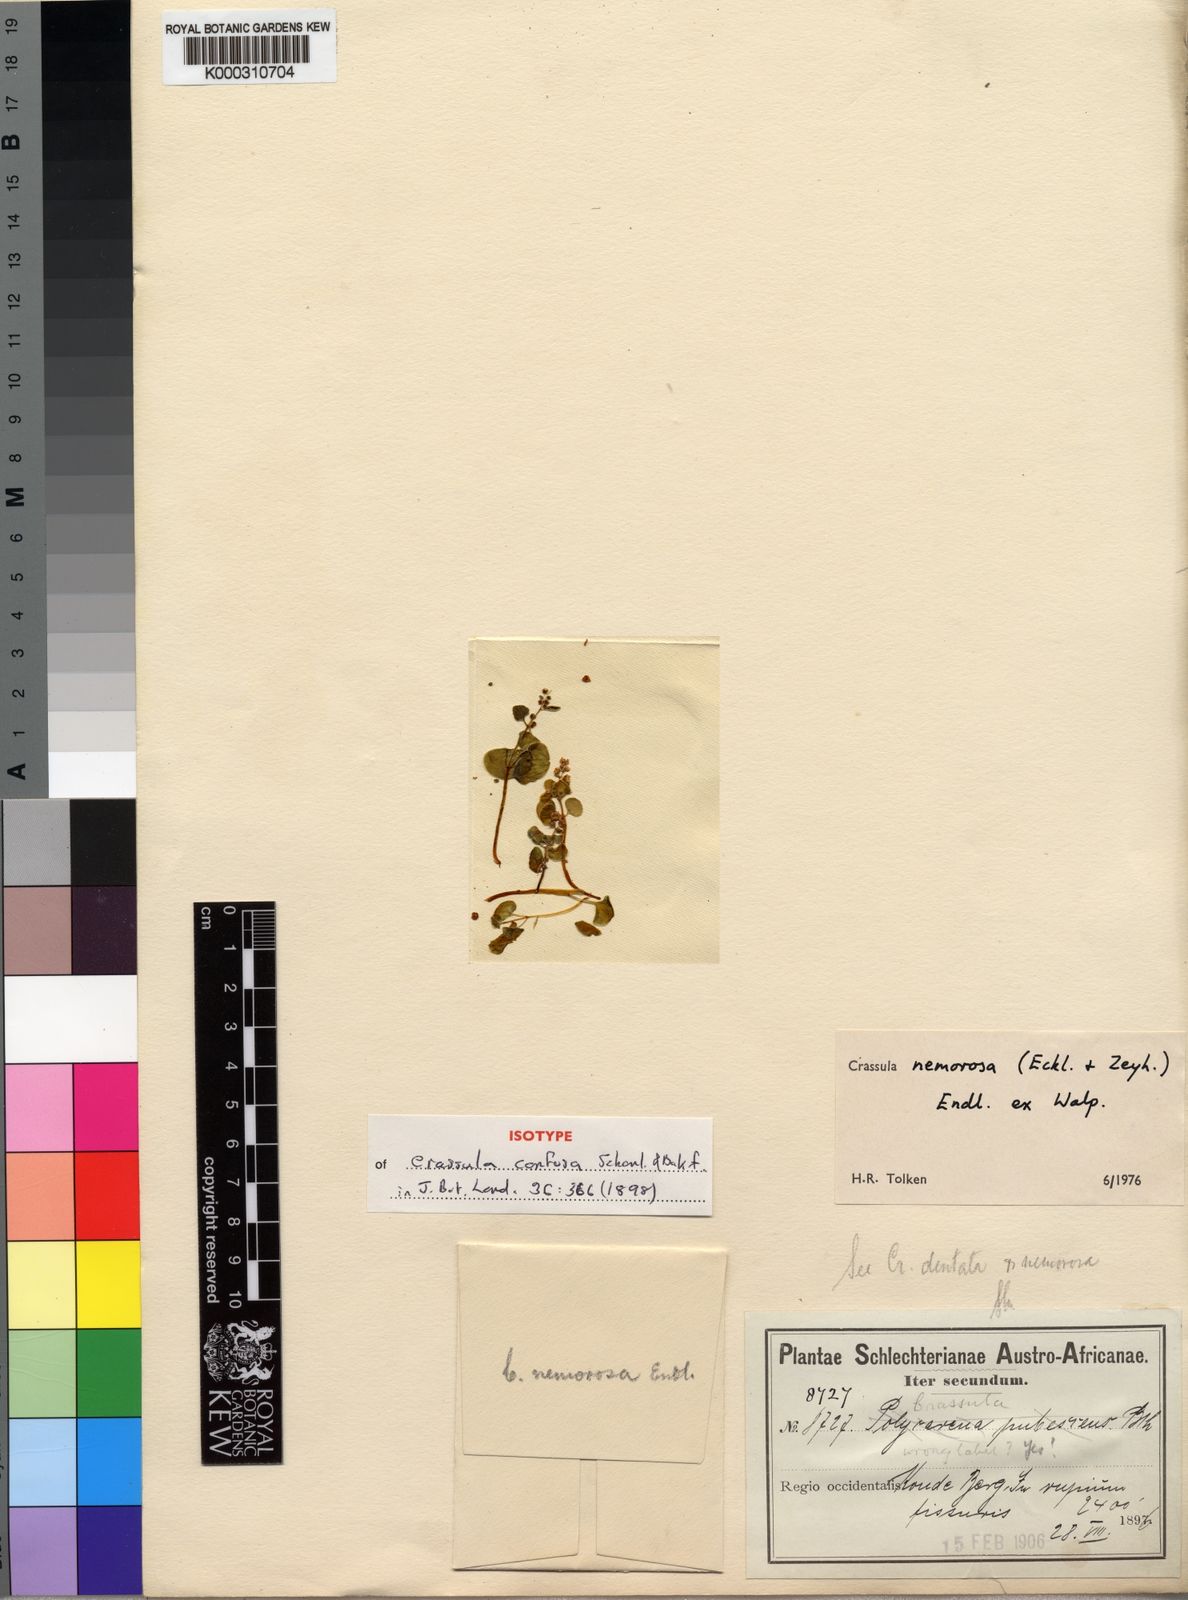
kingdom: Plantae
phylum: Tracheophyta
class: Magnoliopsida
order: Saxifragales
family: Crassulaceae
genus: Crassula
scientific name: Crassula
